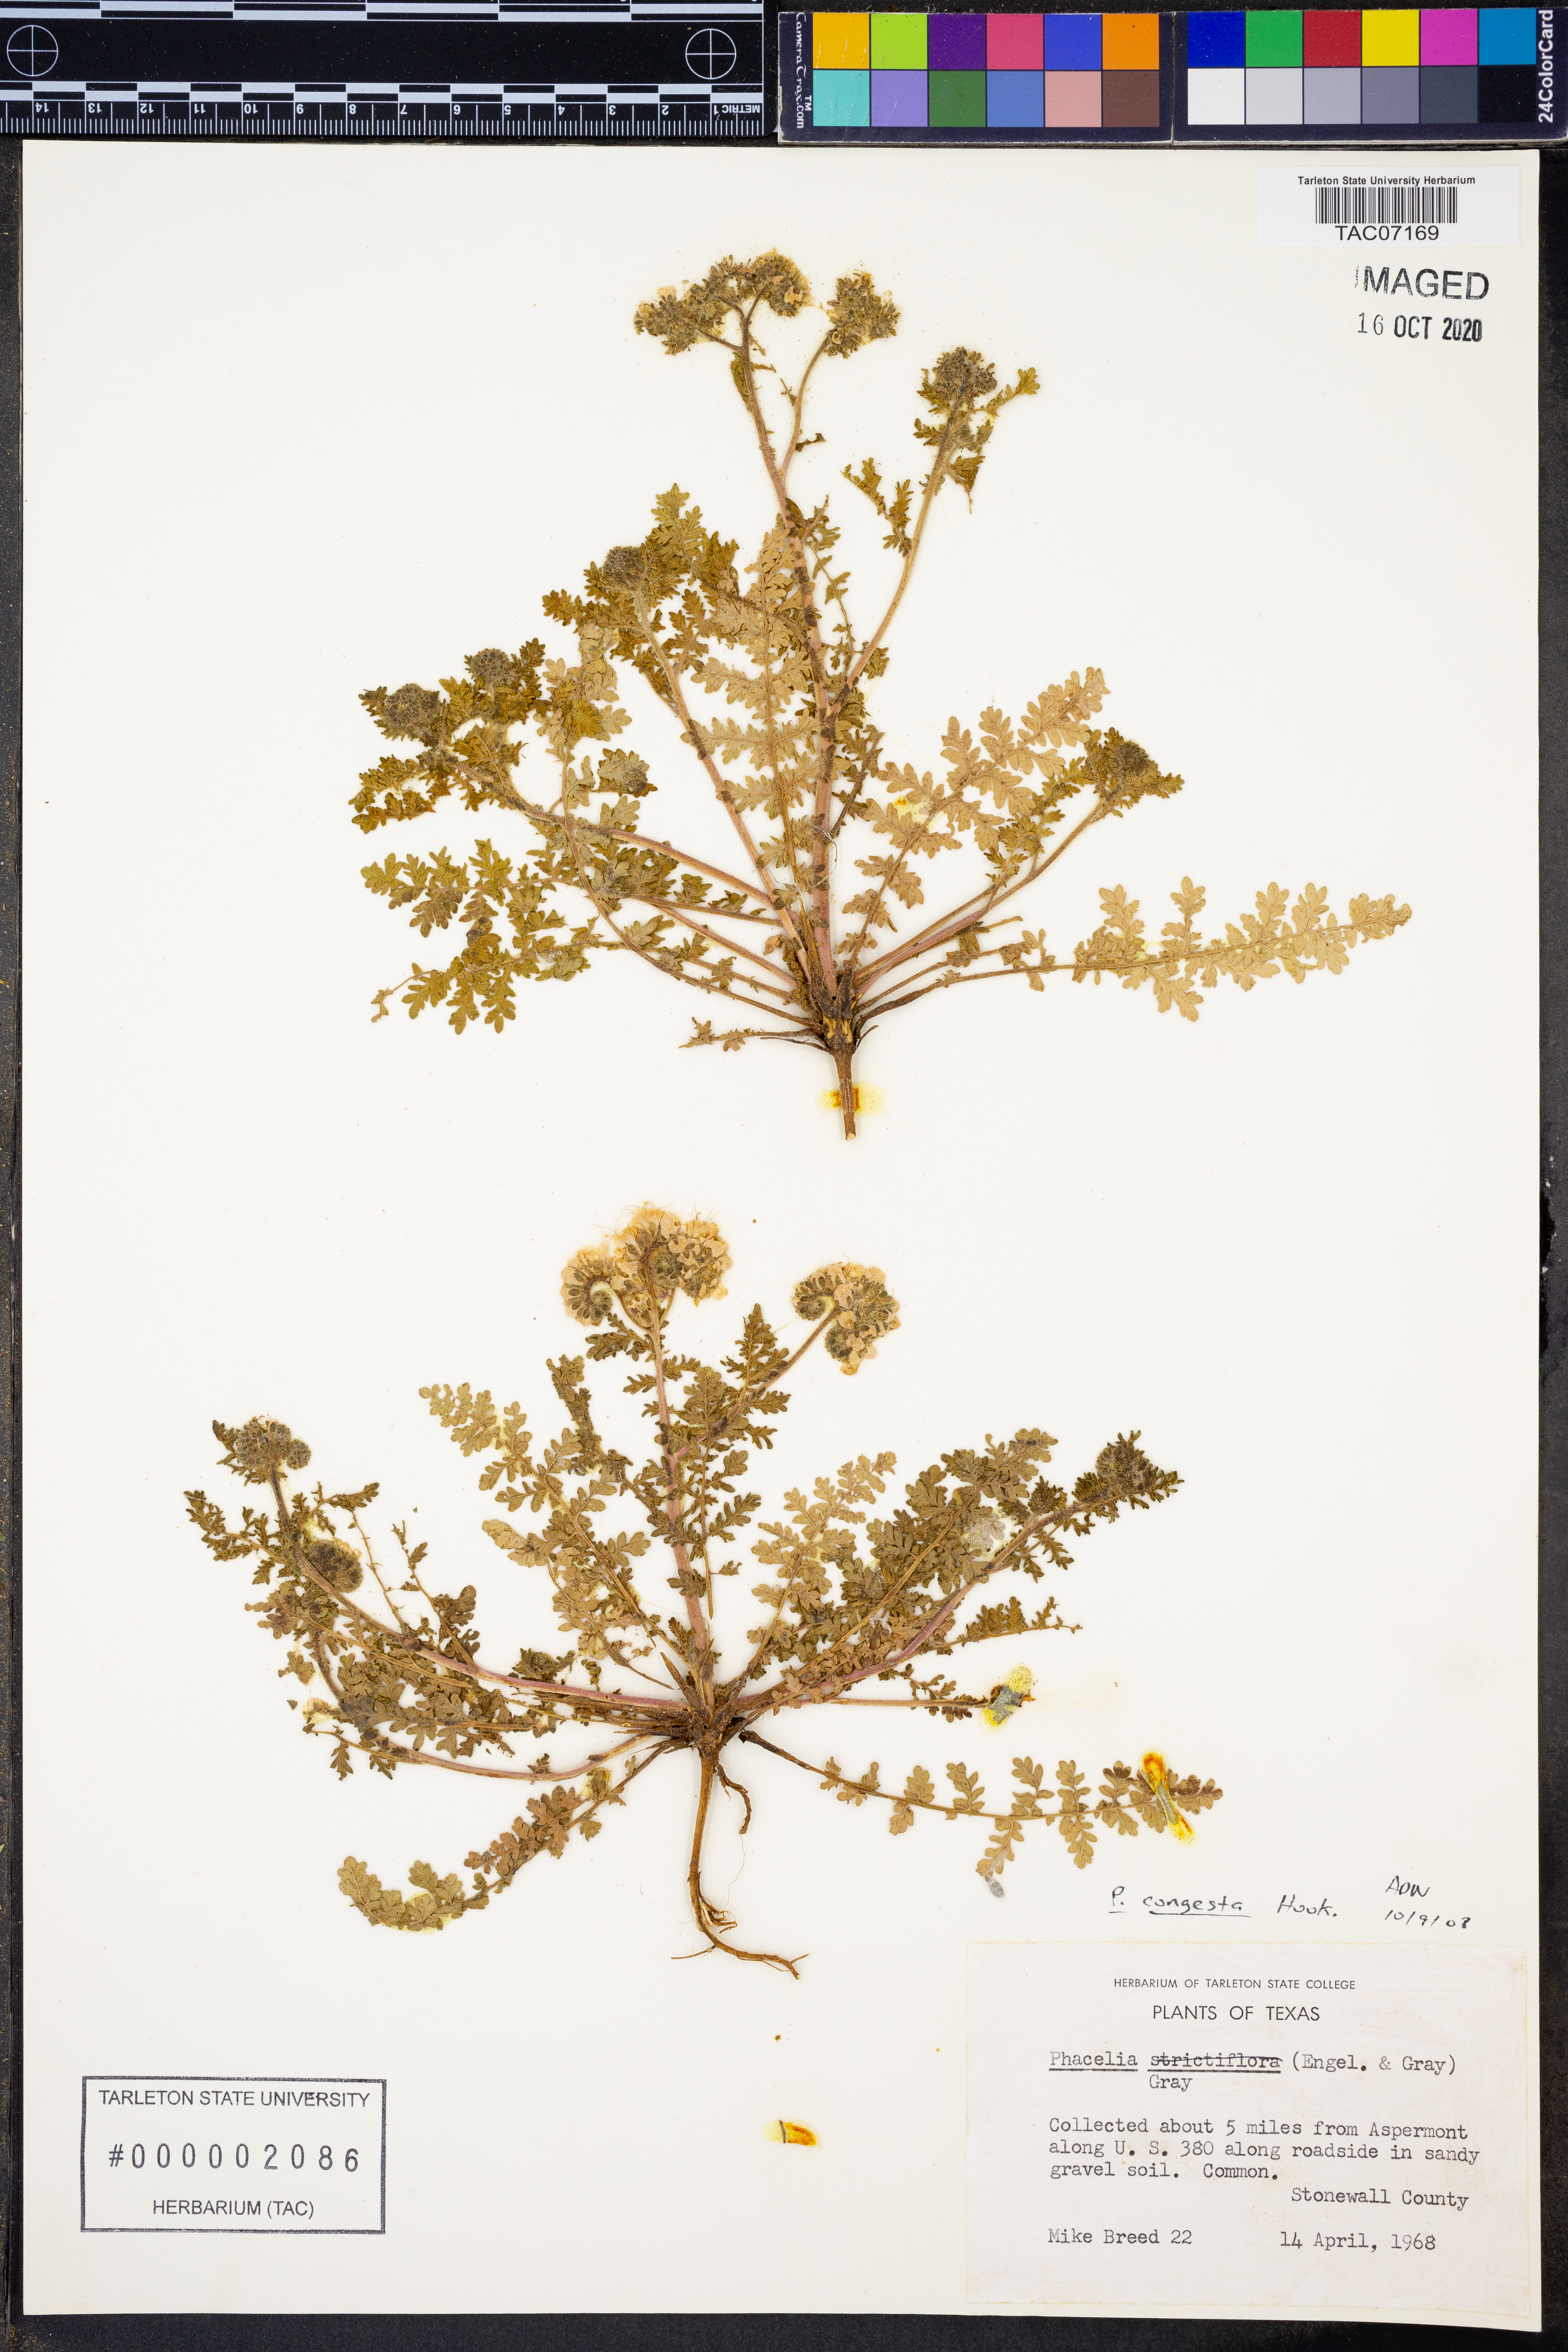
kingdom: Plantae
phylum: Tracheophyta
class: Magnoliopsida
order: Boraginales
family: Hydrophyllaceae
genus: Phacelia
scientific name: Phacelia congesta
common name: Blue curls
